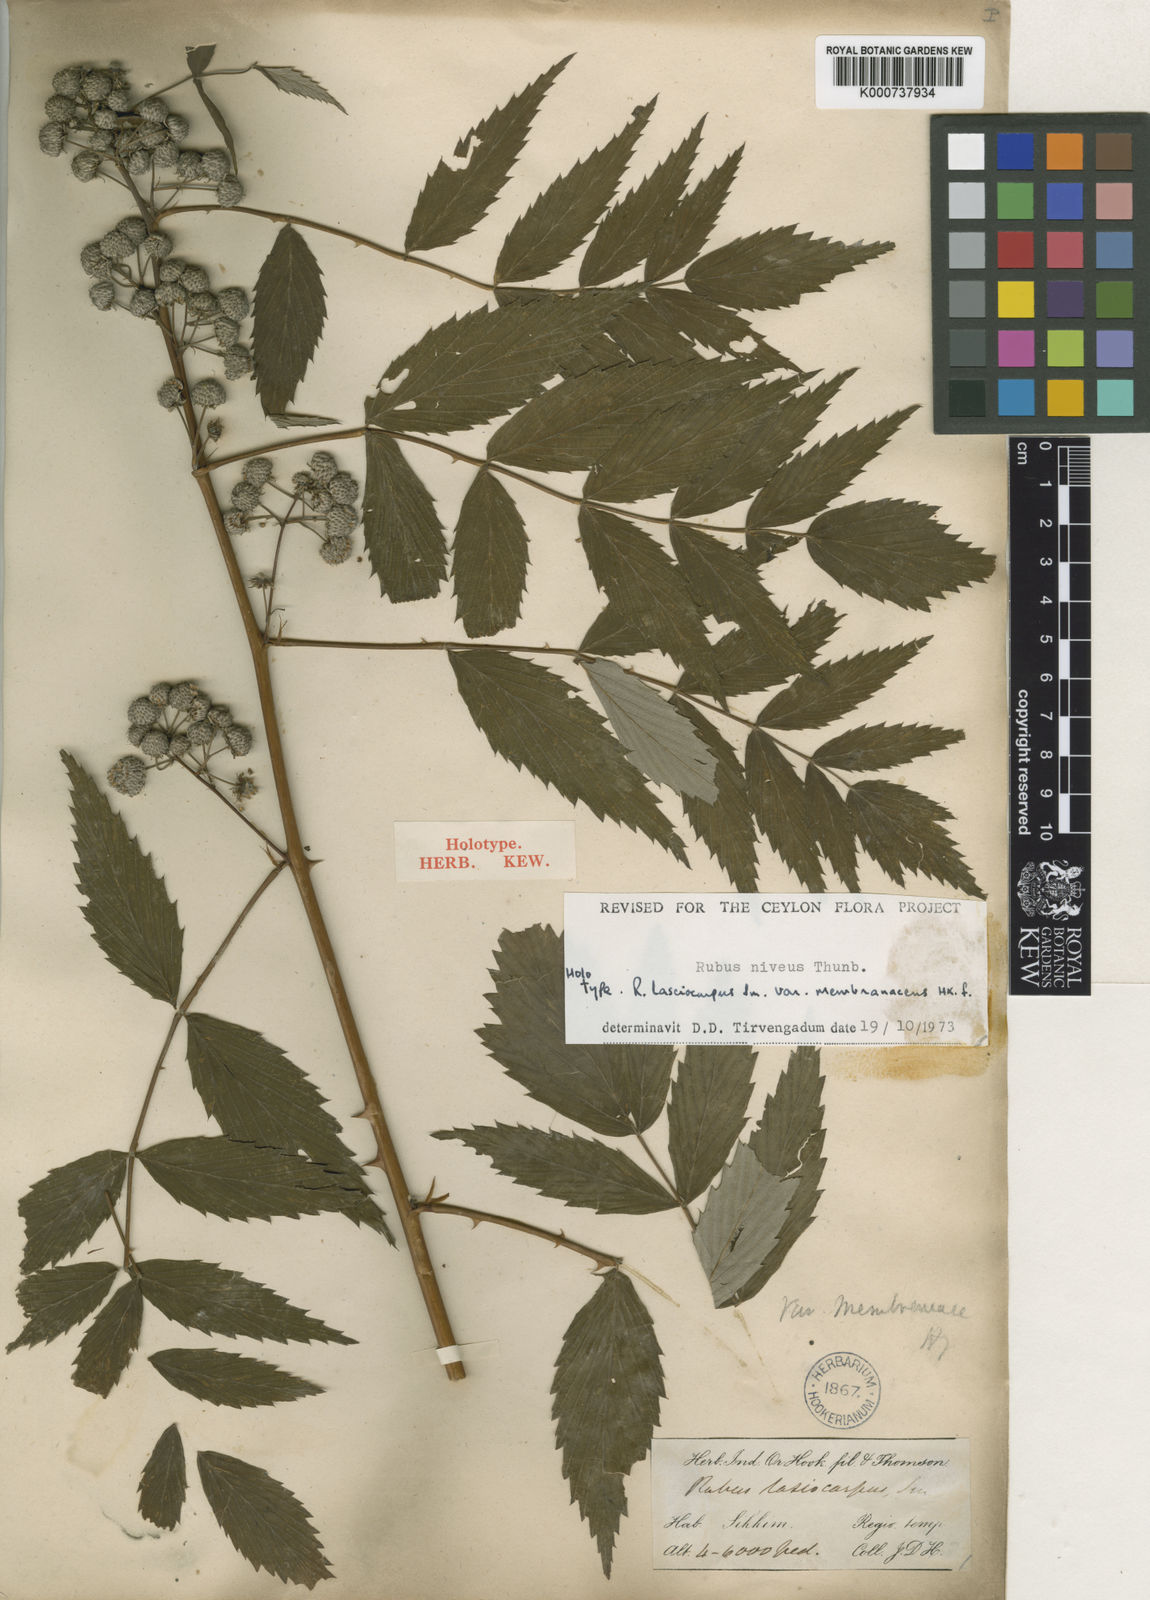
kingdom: Plantae
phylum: Tracheophyta
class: Magnoliopsida
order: Rosales
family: Rosaceae
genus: Rubus
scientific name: Rubus niveus
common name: Snowpeaks raspberry
